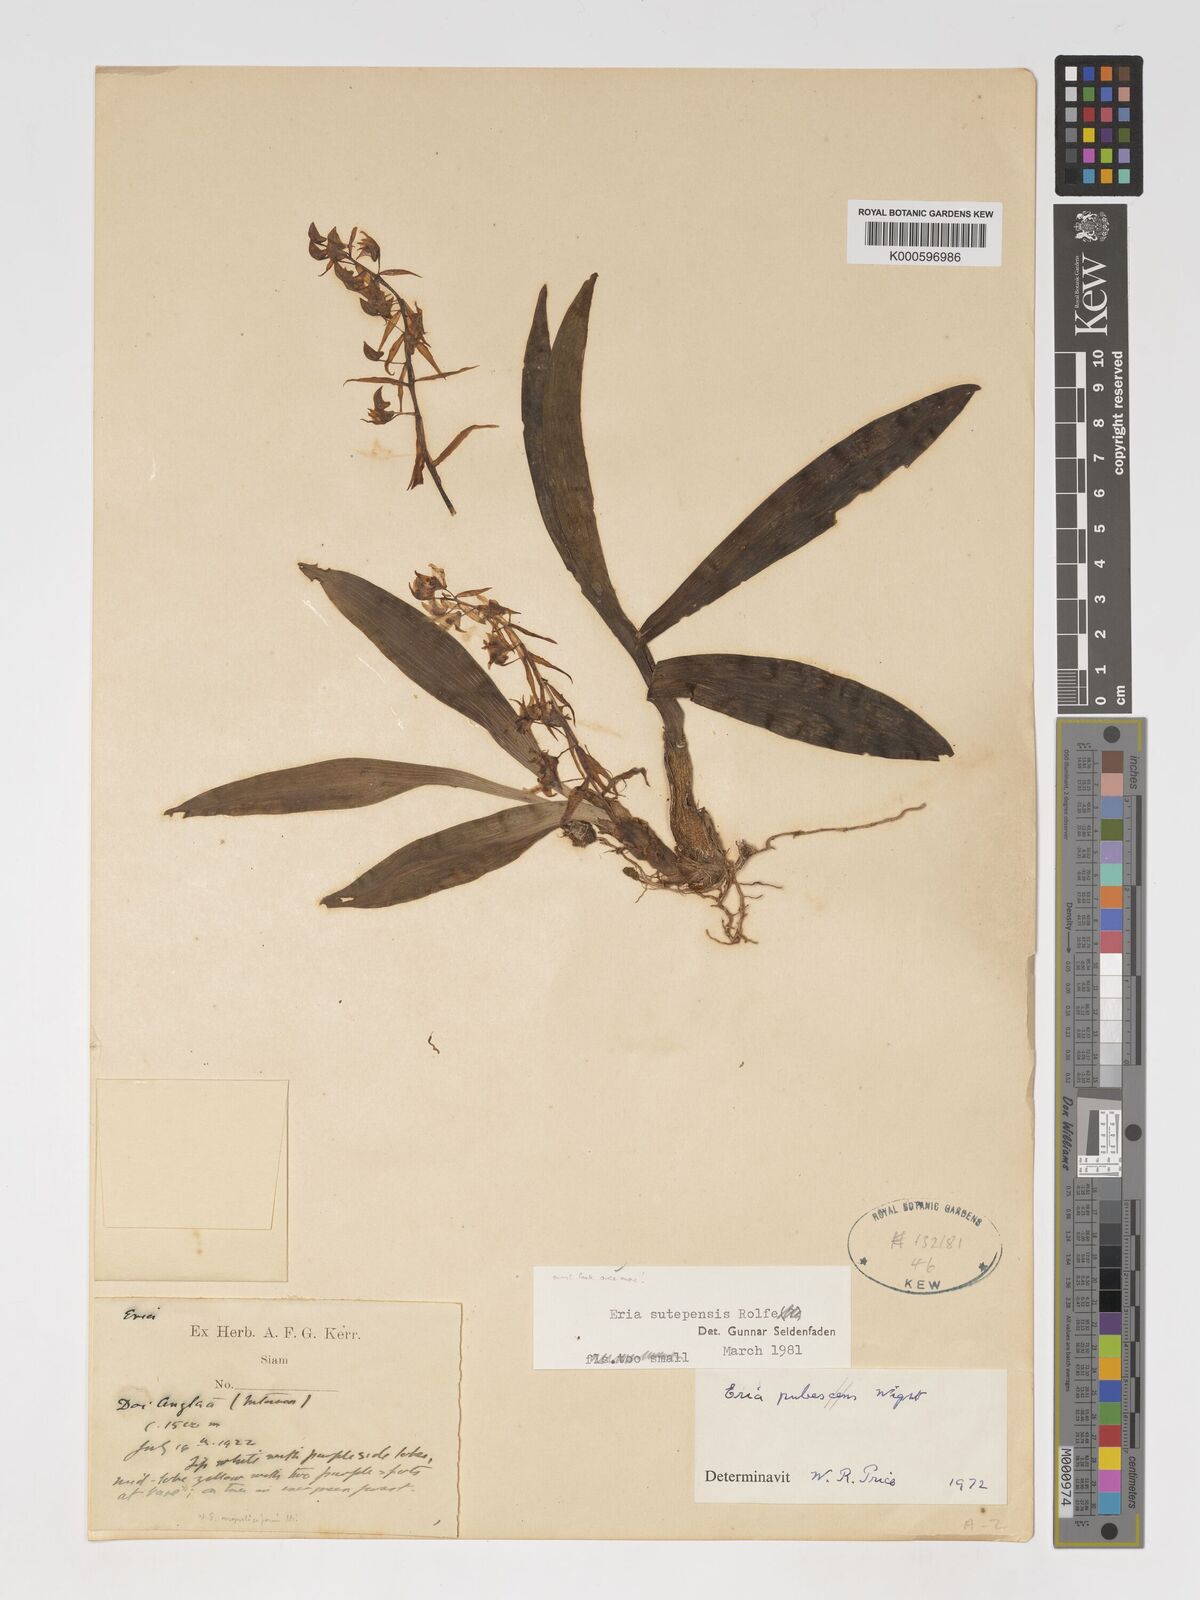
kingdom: Plantae
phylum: Tracheophyta
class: Liliopsida
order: Asparagales
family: Orchidaceae
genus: Pinalia
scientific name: Pinalia sutepensis
